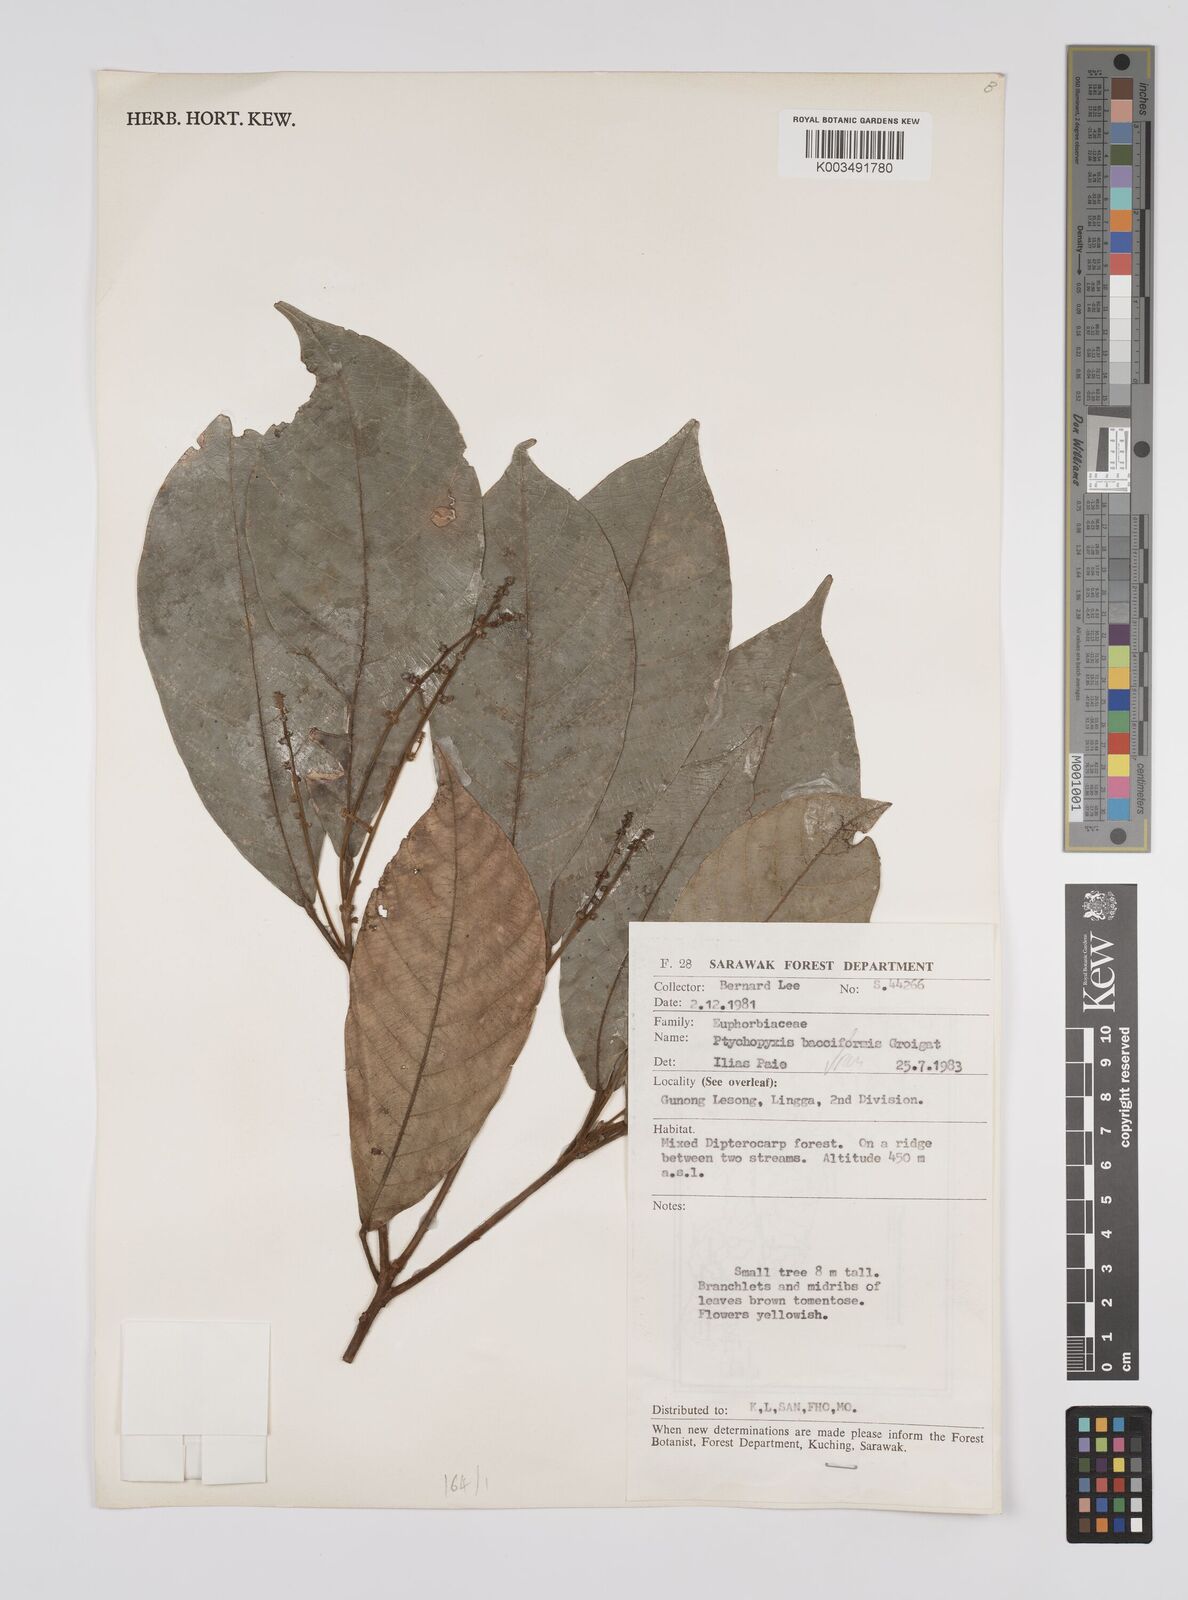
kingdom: Plantae
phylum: Tracheophyta
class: Magnoliopsida
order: Malpighiales
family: Euphorbiaceae
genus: Ptychopyxis
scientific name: Ptychopyxis bacciformis
